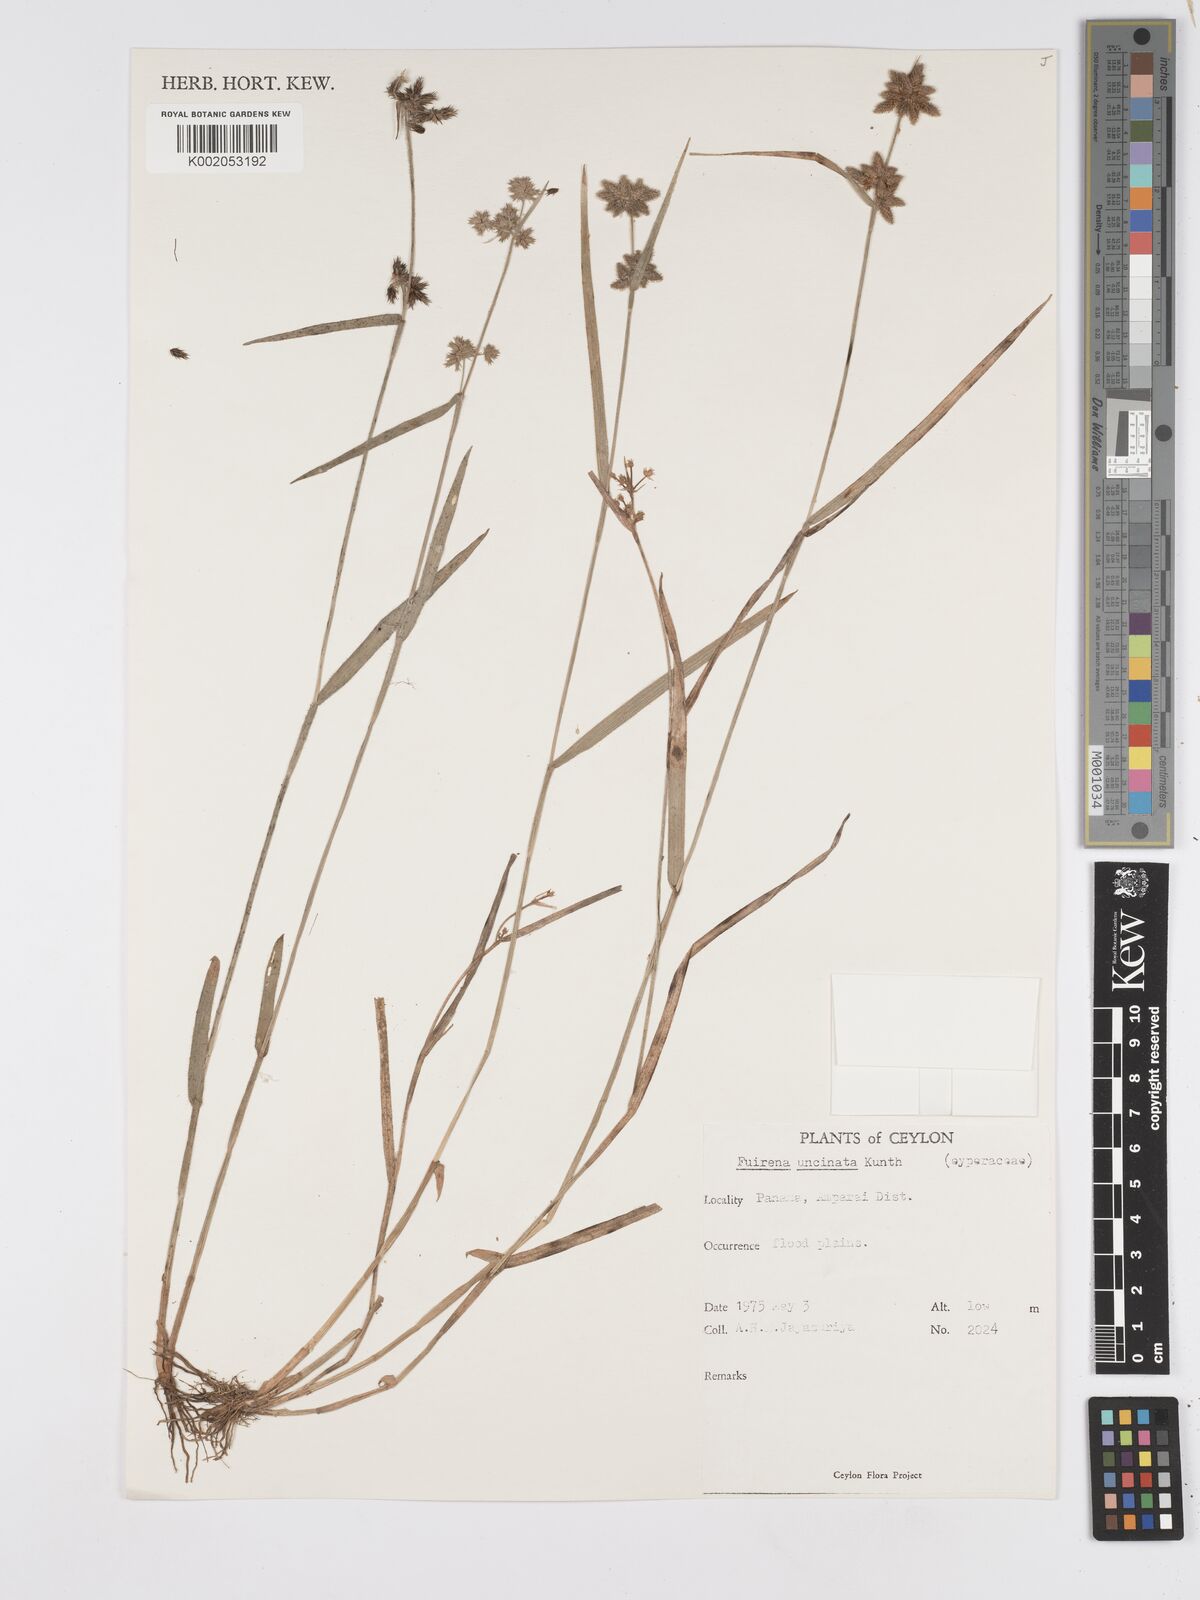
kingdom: Plantae
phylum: Tracheophyta
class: Liliopsida
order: Poales
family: Cyperaceae
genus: Fuirena
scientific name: Fuirena uncinata
